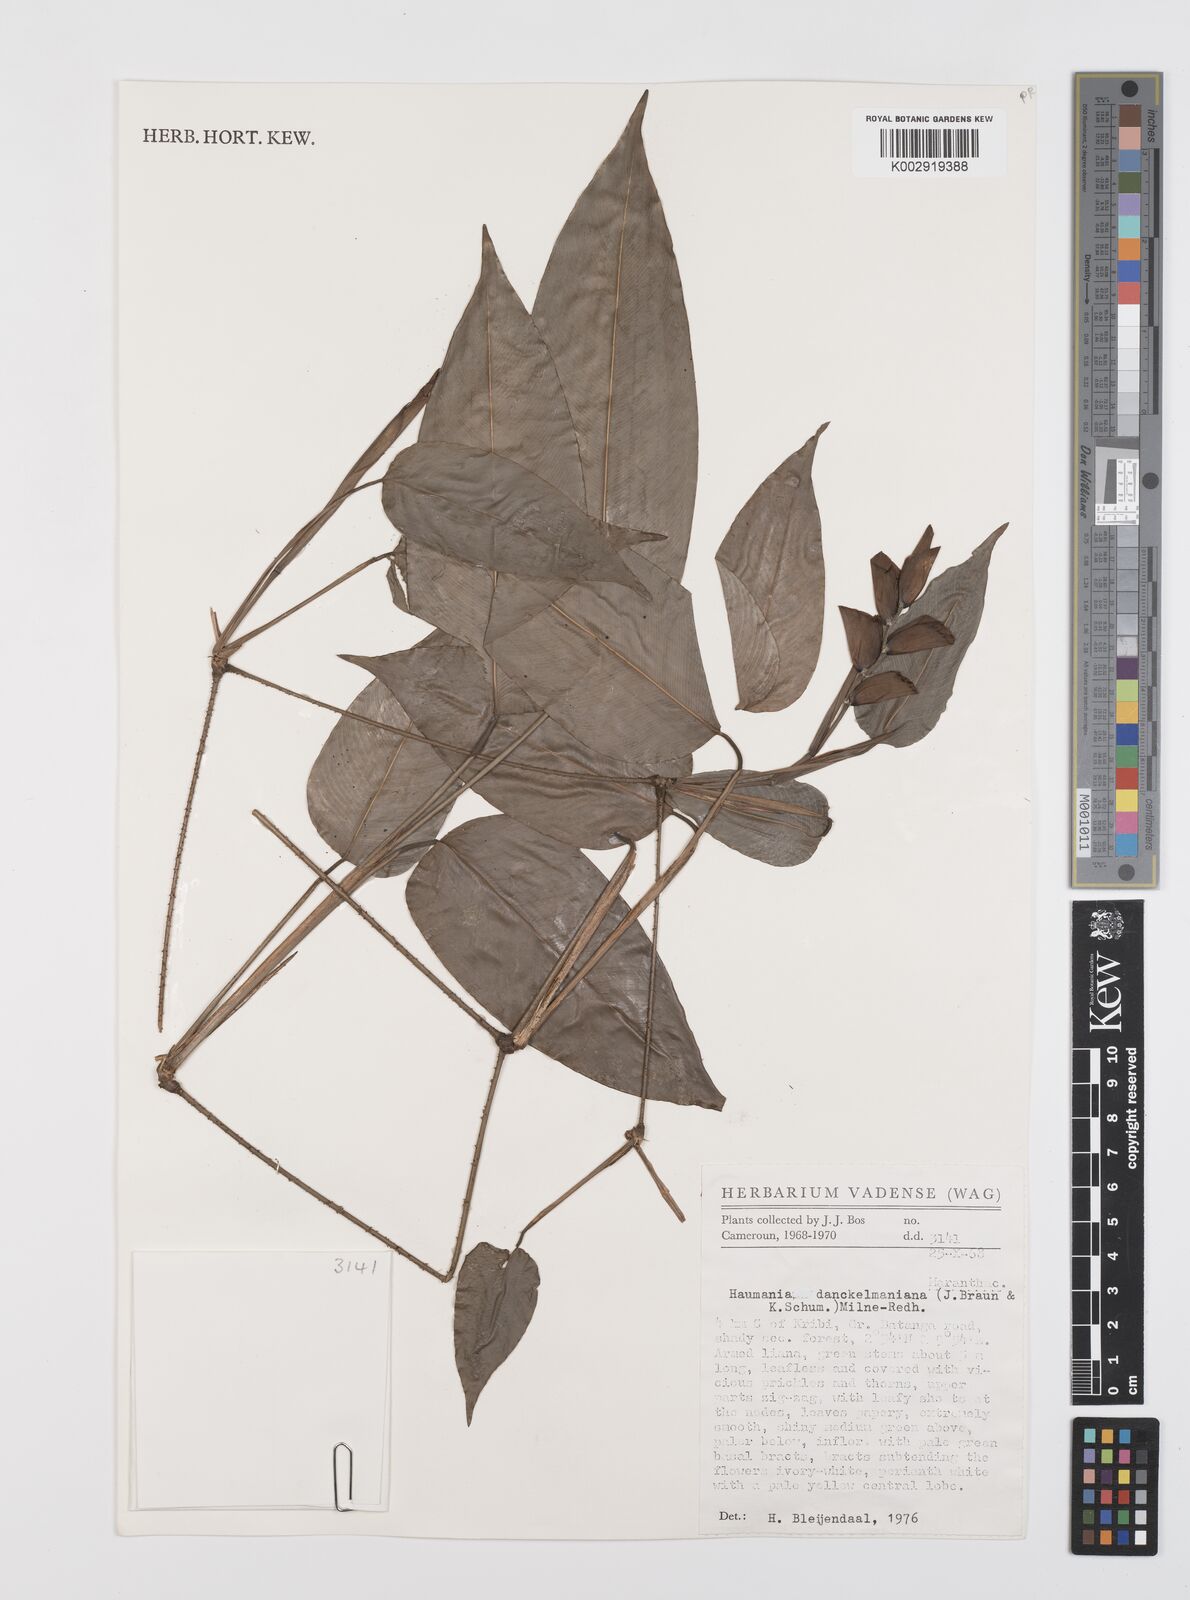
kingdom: Plantae
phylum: Tracheophyta
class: Liliopsida
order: Zingiberales
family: Marantaceae
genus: Haumania
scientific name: Haumania danckelmaniana
